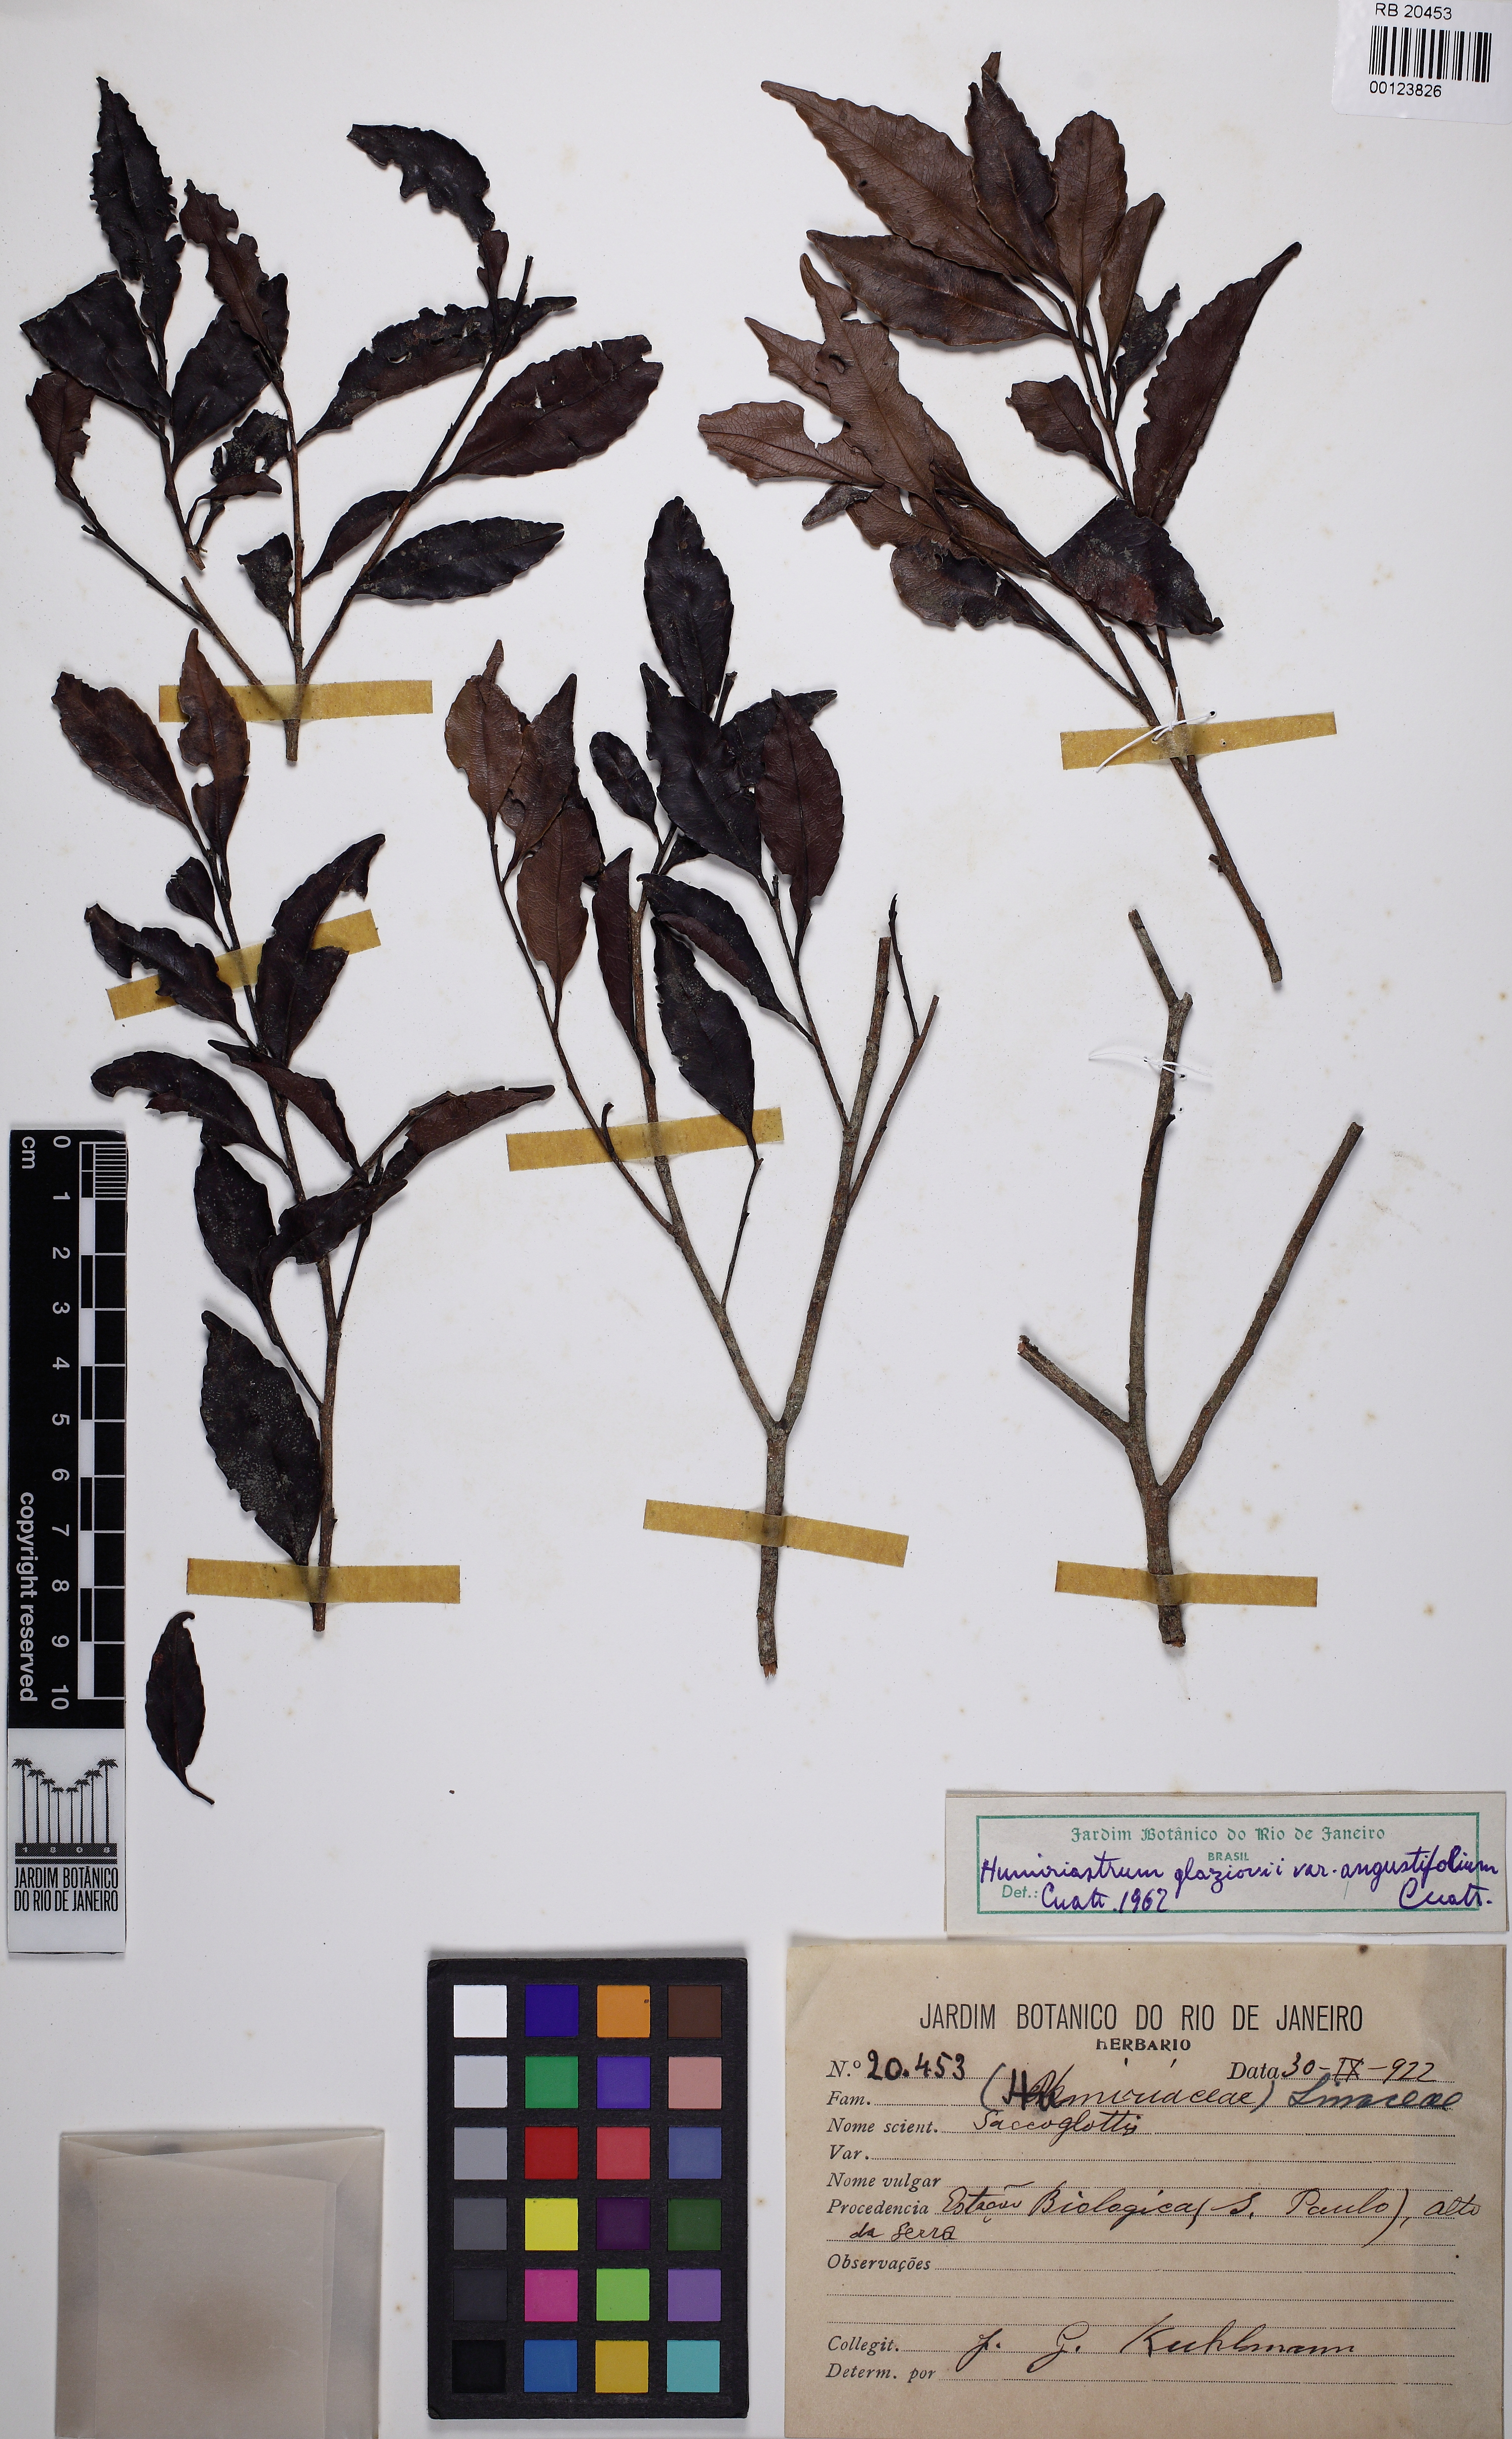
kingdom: Plantae
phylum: Tracheophyta
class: Magnoliopsida
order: Malpighiales
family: Humiriaceae
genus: Humiriastrum
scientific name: Humiriastrum glaziovii
